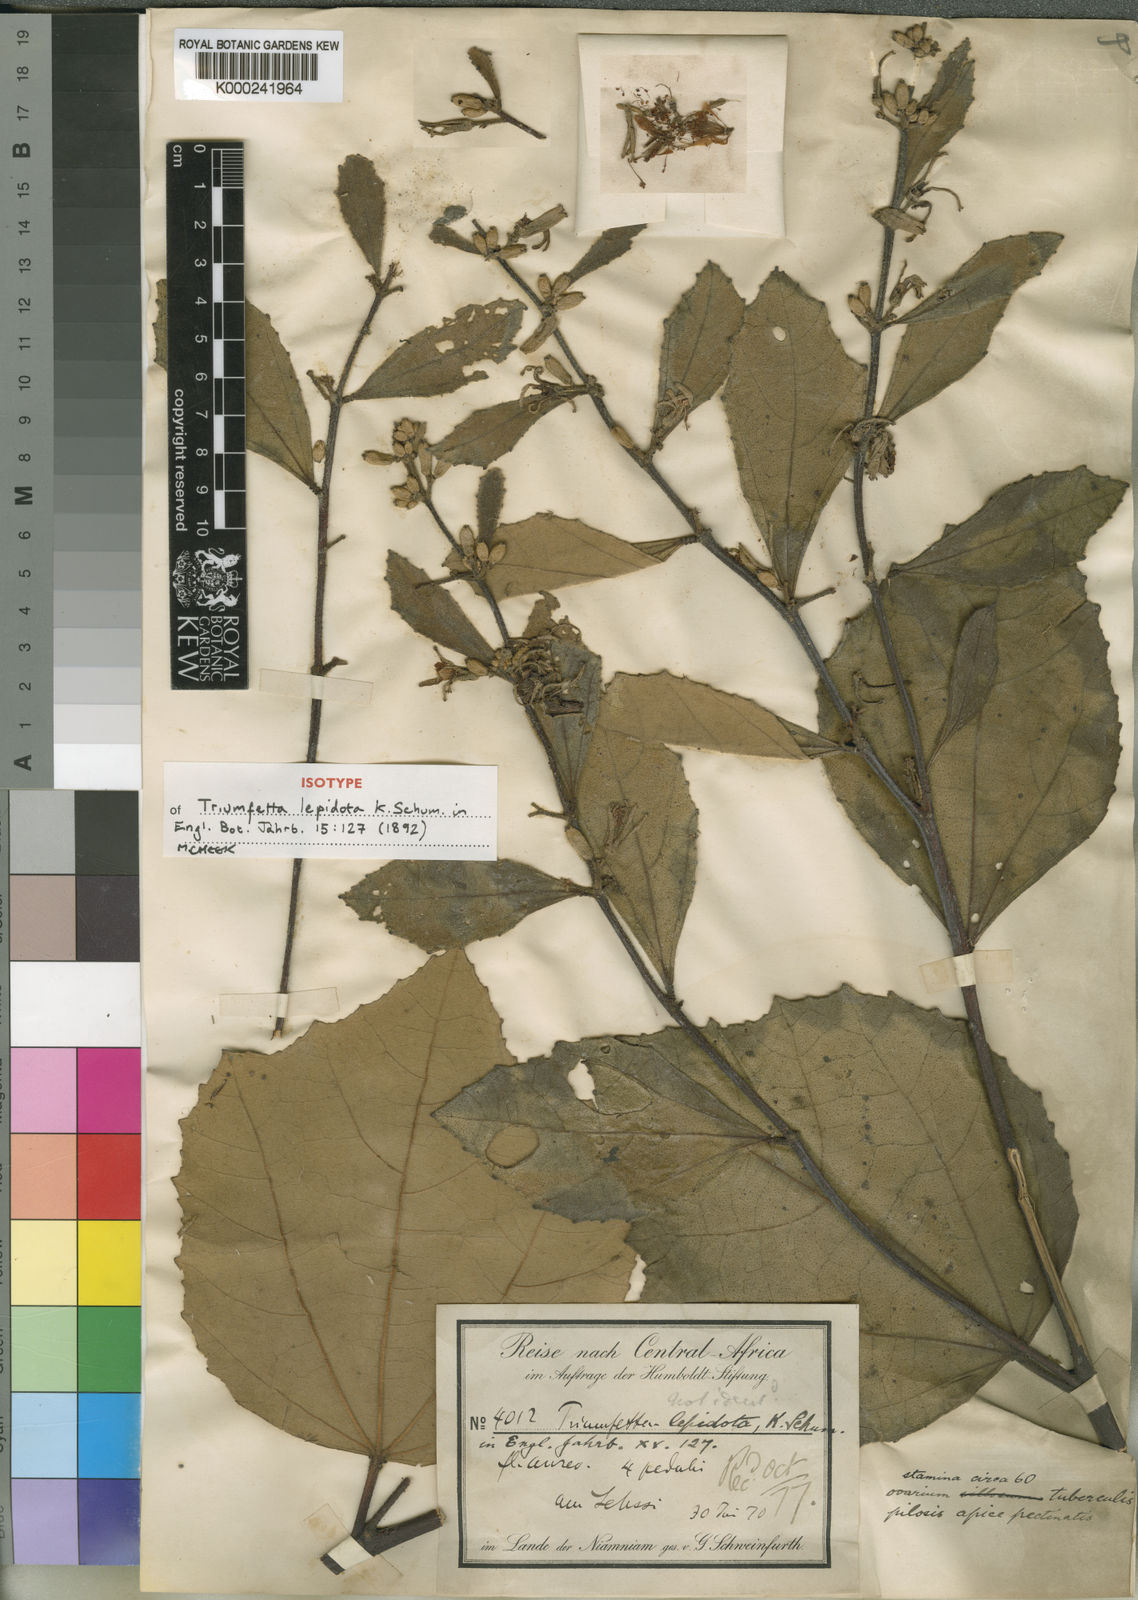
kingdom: Plantae
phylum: Tracheophyta
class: Magnoliopsida
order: Malvales
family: Malvaceae
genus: Triumfetta
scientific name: Triumfetta lepidota
